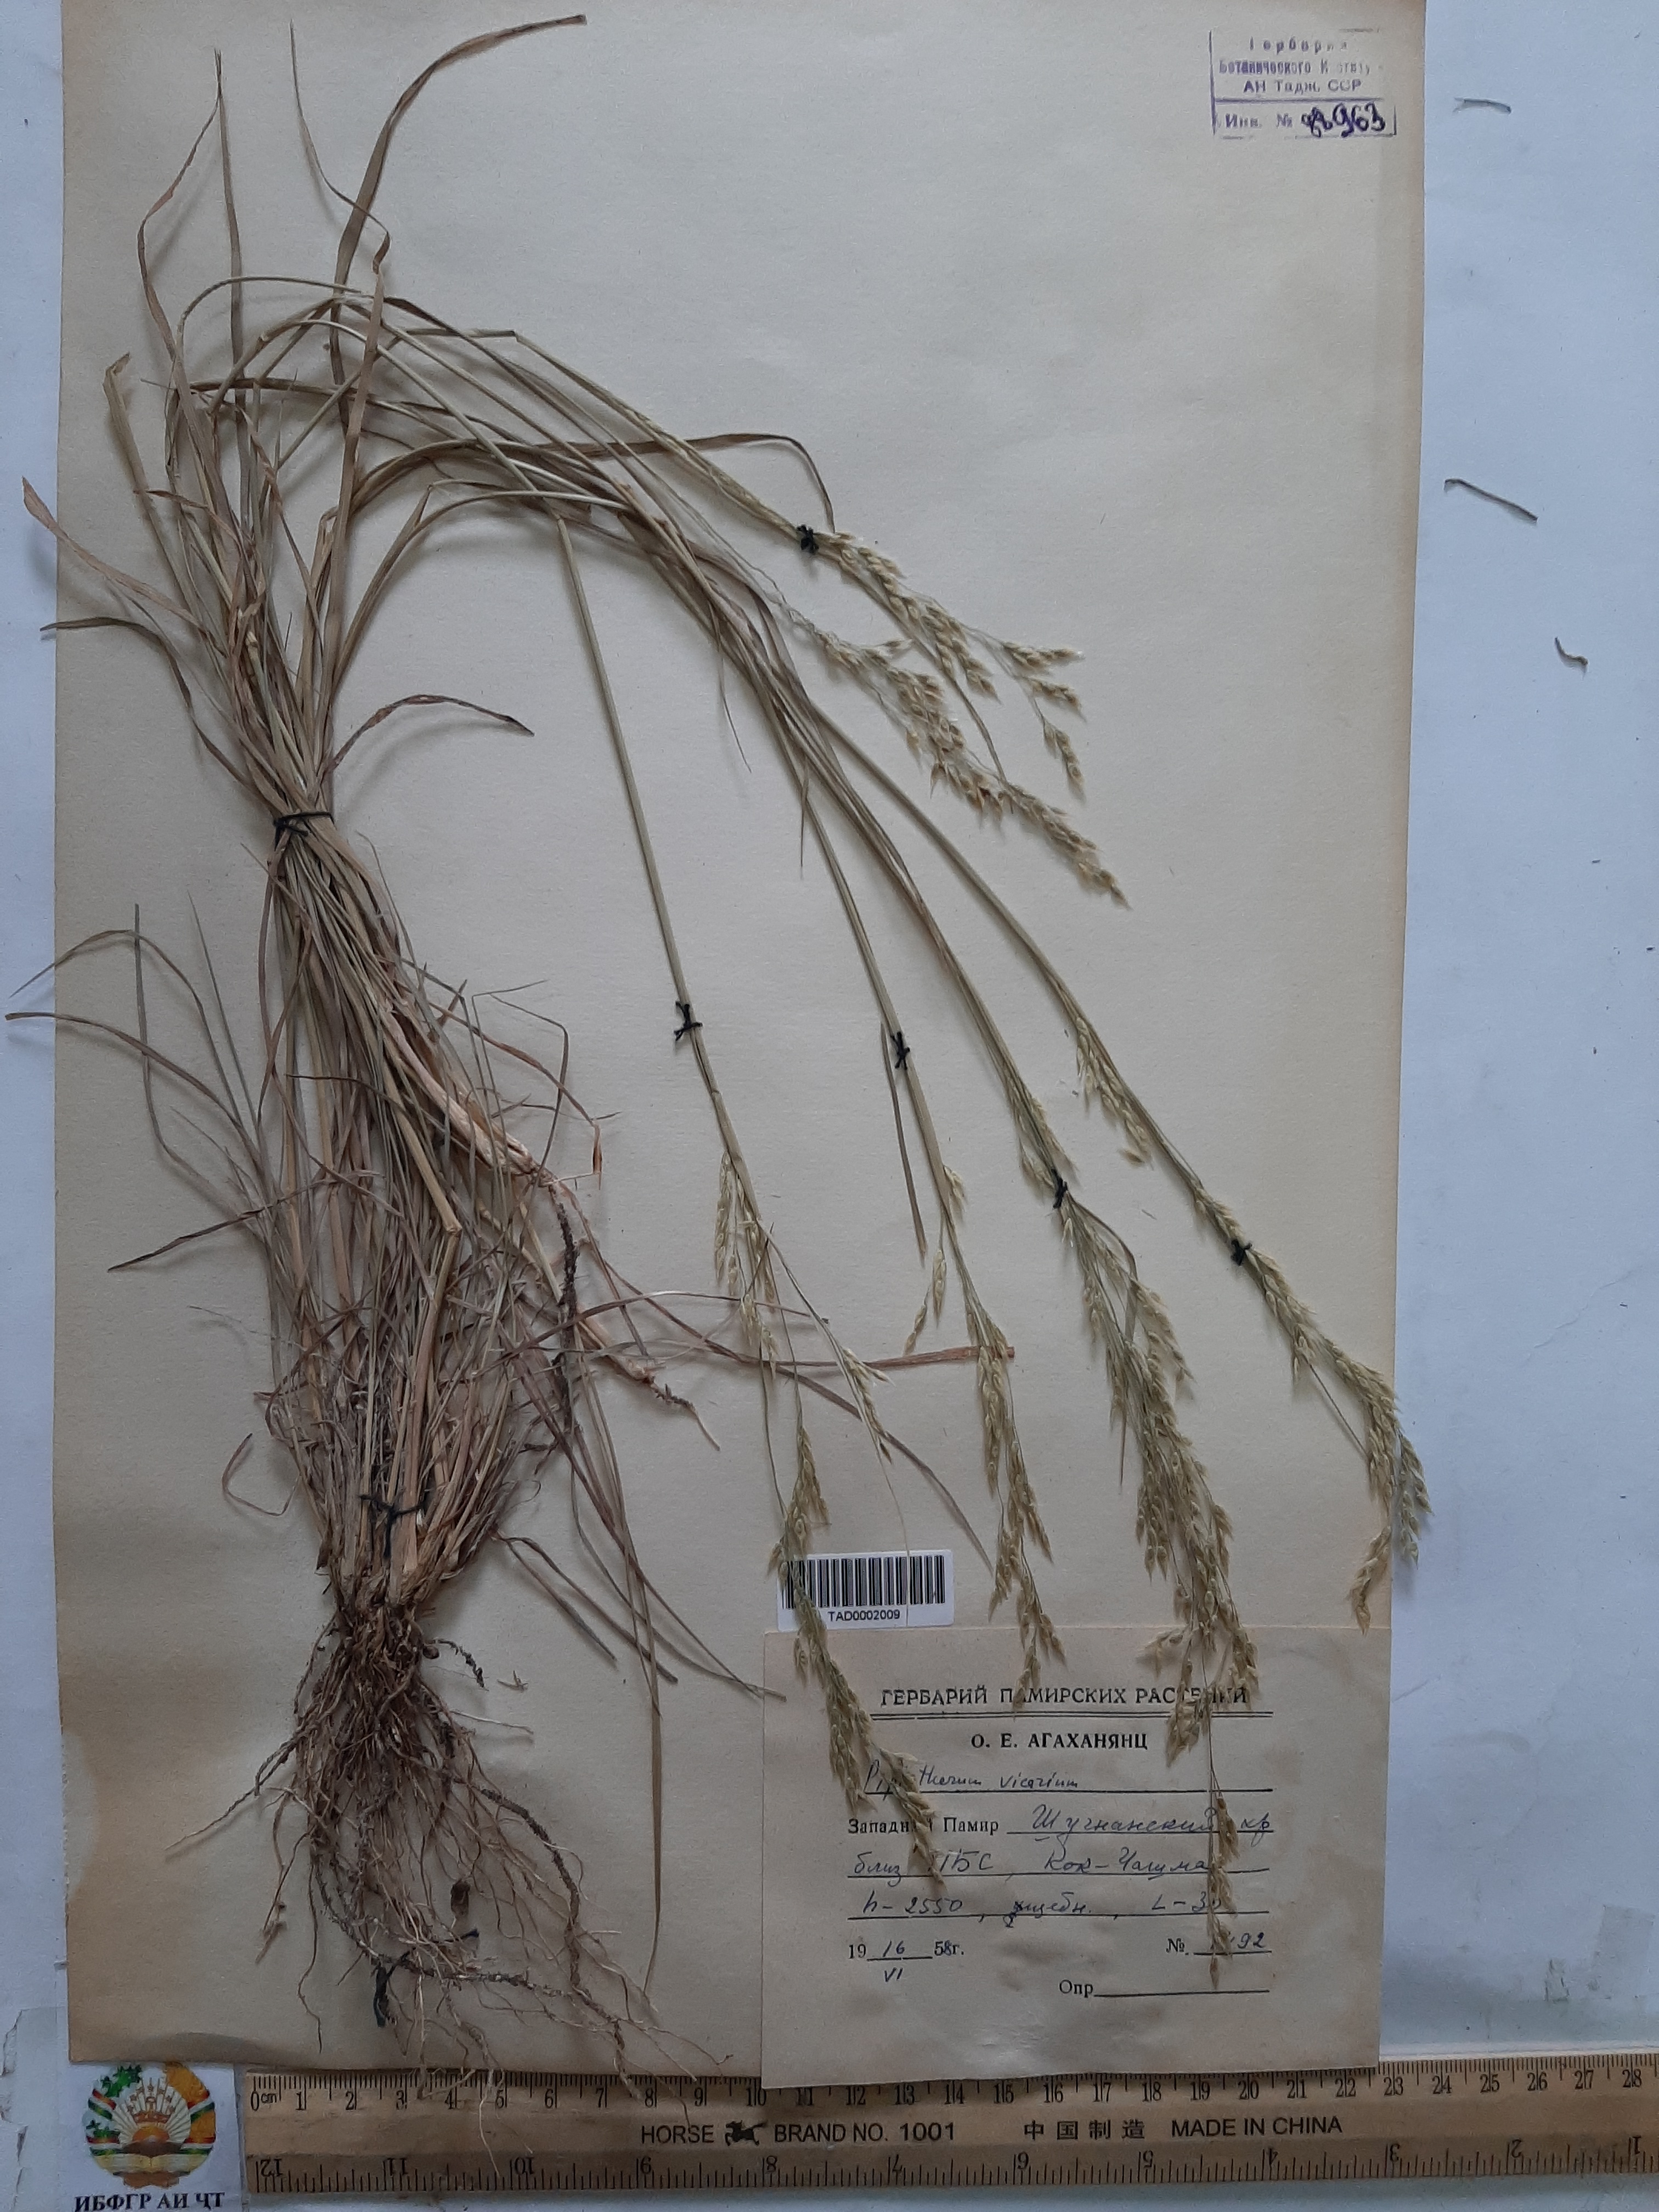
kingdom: Plantae
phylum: Tracheophyta
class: Liliopsida
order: Poales
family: Poaceae
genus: Piptatherum
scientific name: Piptatherum microcarpum
